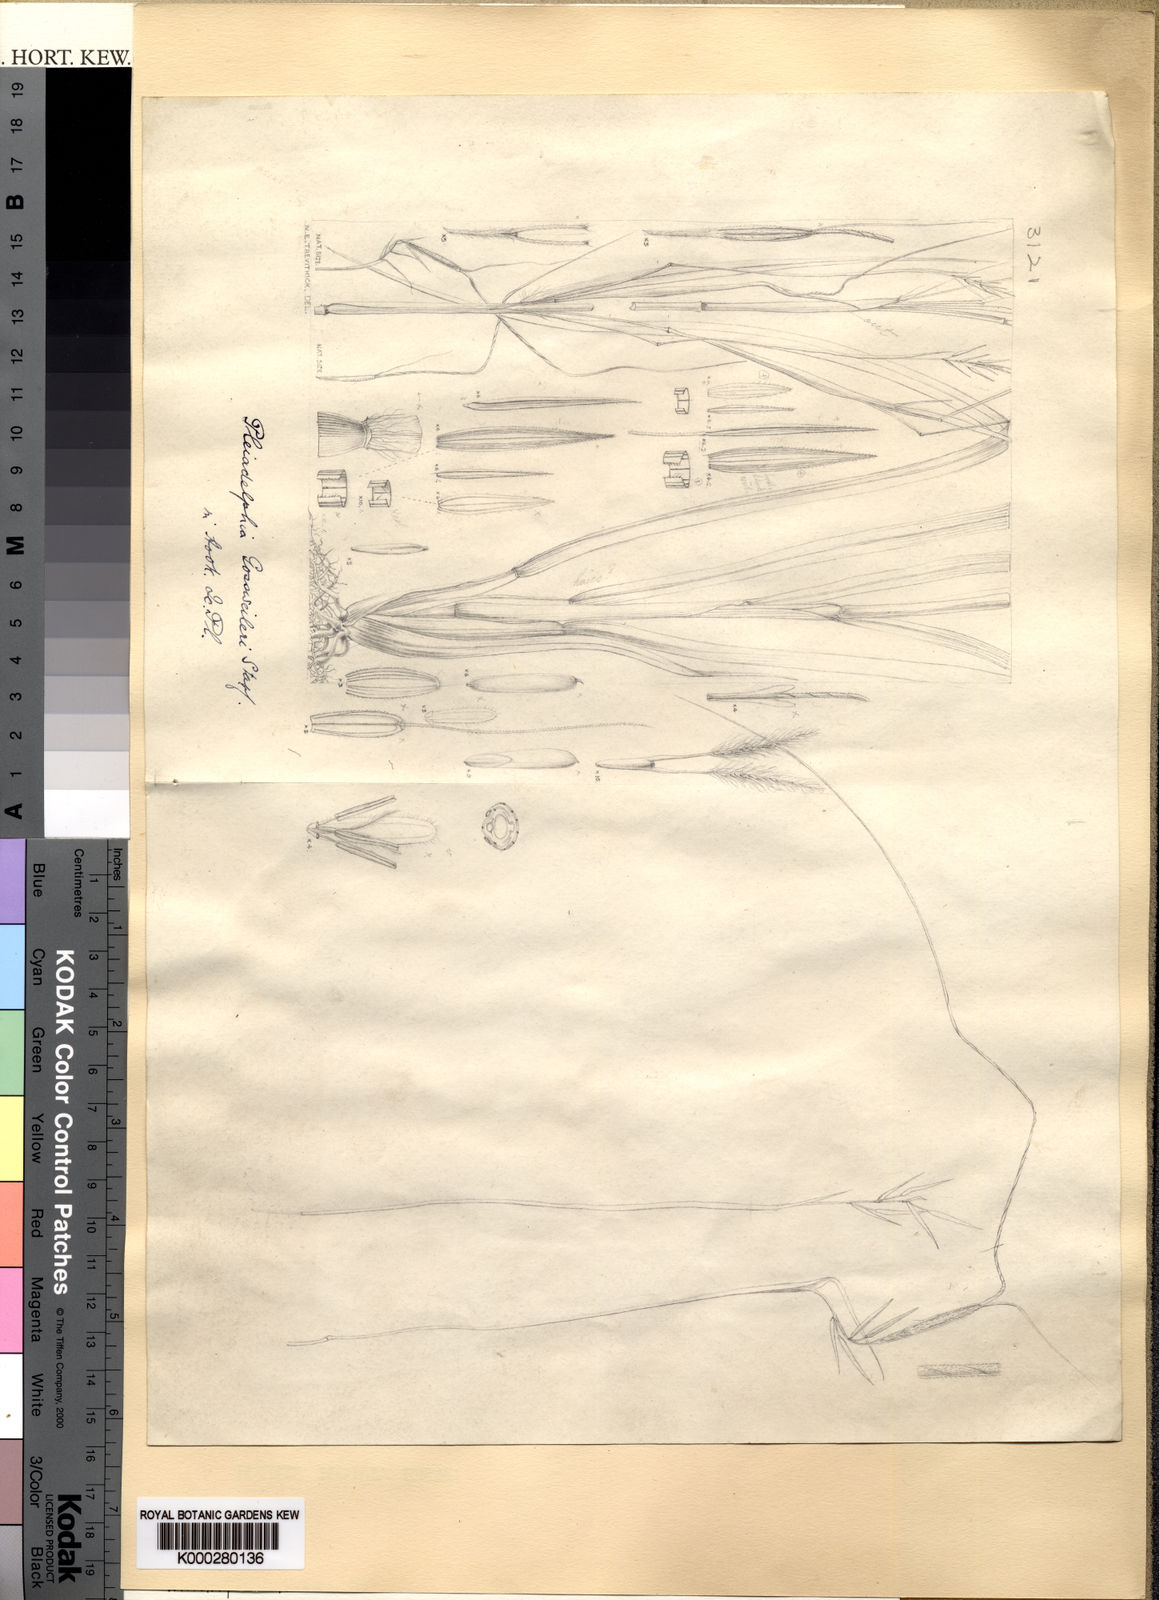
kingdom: Plantae
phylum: Tracheophyta
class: Liliopsida
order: Poales
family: Poaceae
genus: Elymandra
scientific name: Elymandra gossweileri
